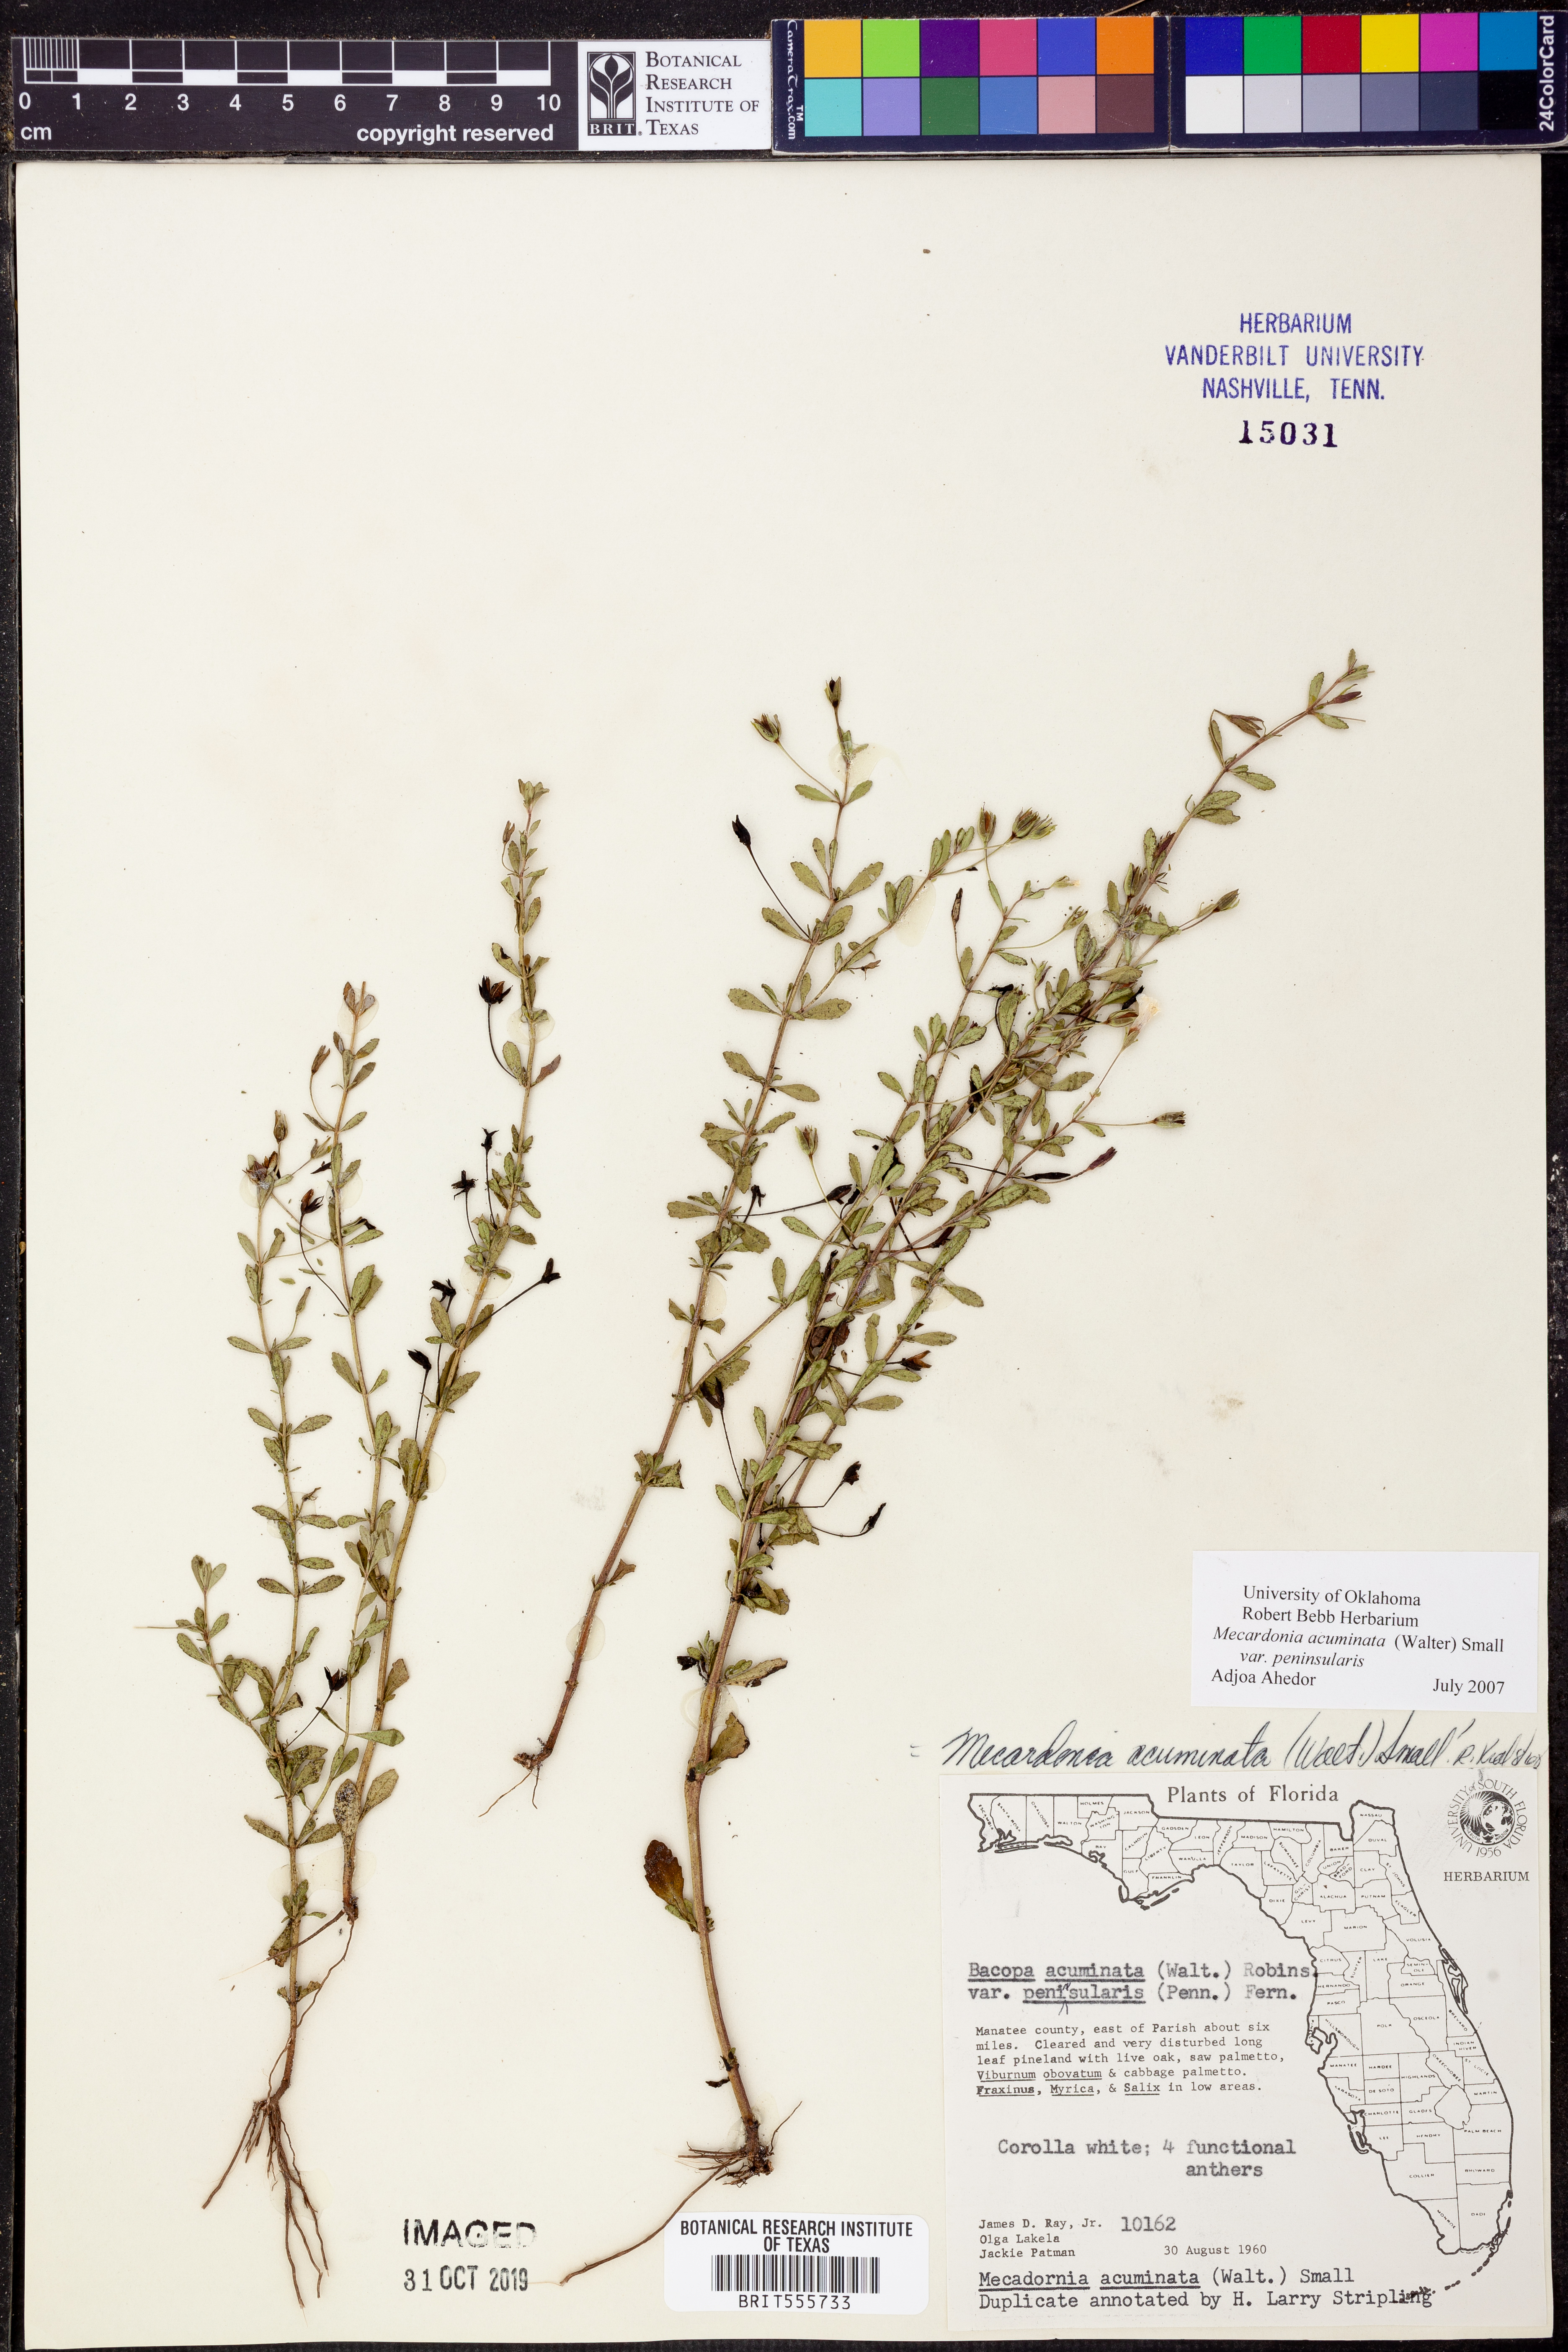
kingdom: Plantae
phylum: Tracheophyta
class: Magnoliopsida
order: Lamiales
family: Plantaginaceae
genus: Mecardonia
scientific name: Mecardonia acuminata
